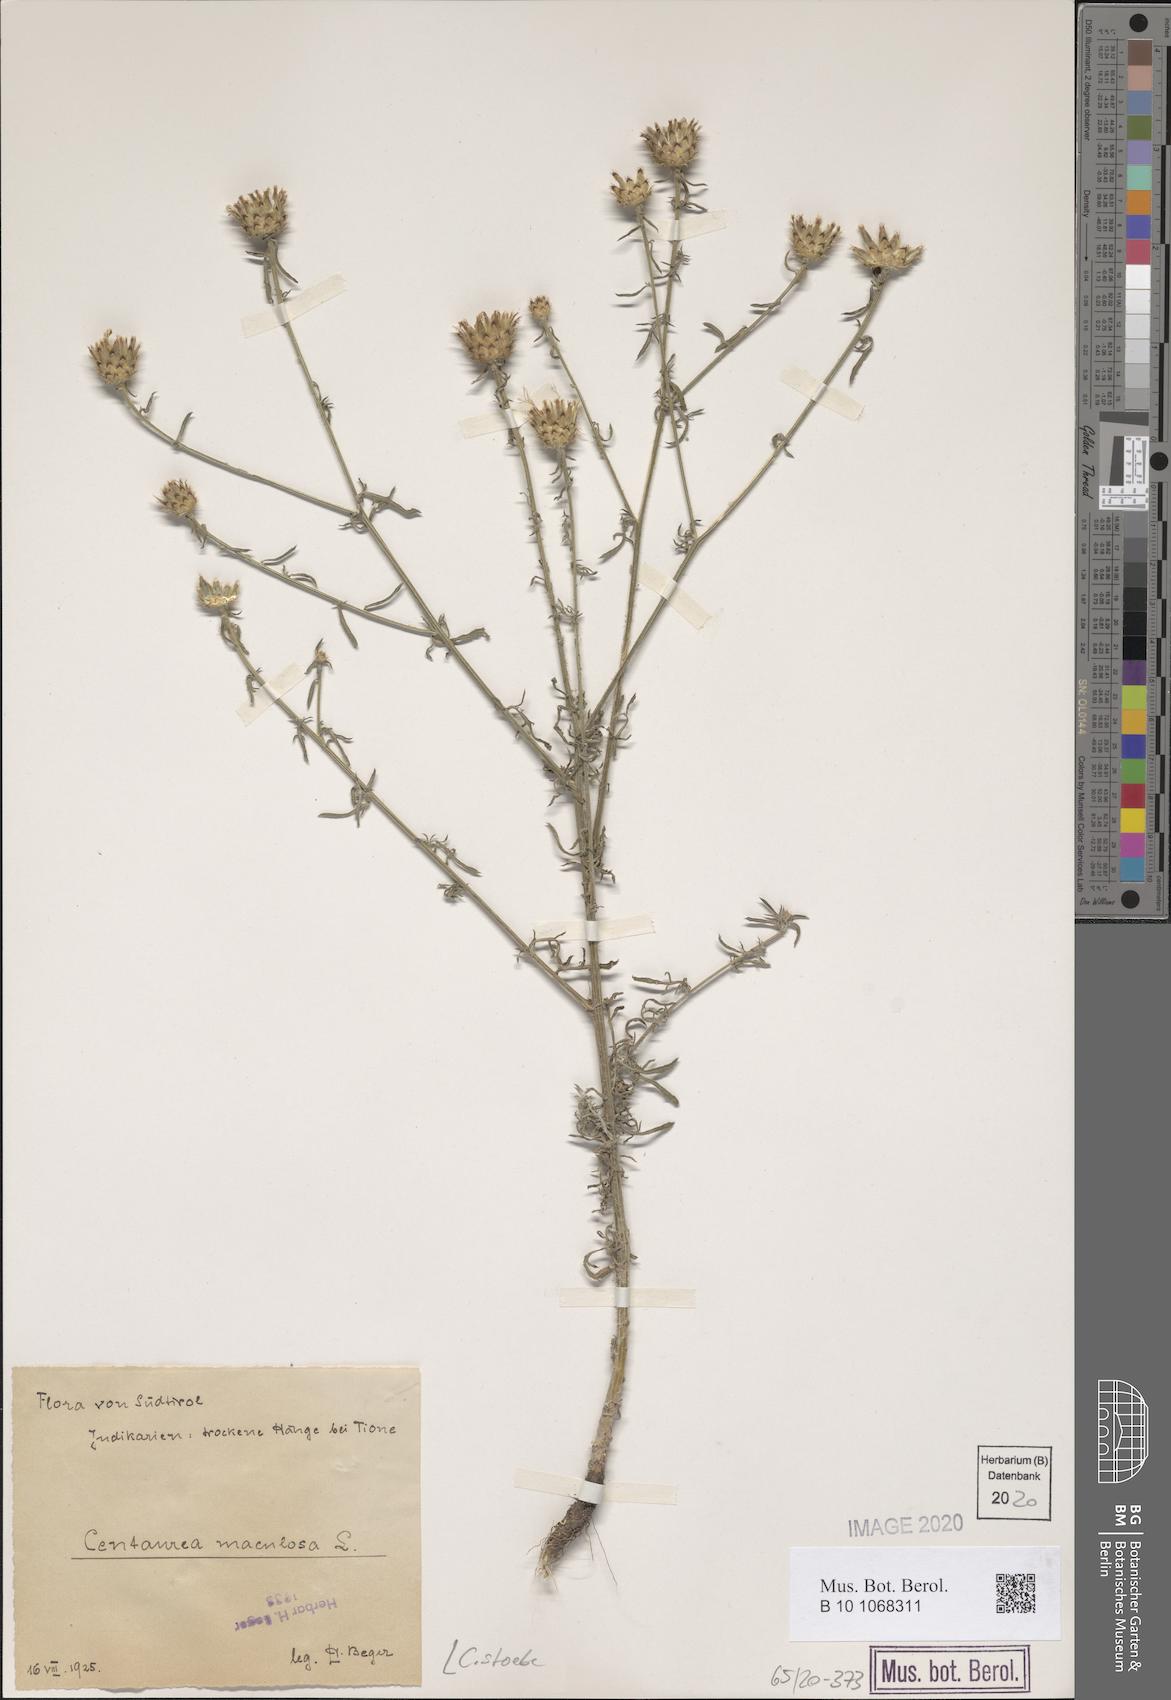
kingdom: Plantae
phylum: Tracheophyta
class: Magnoliopsida
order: Asterales
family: Asteraceae
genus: Centaurea
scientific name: Centaurea stoebe
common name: Spotted knapweed
